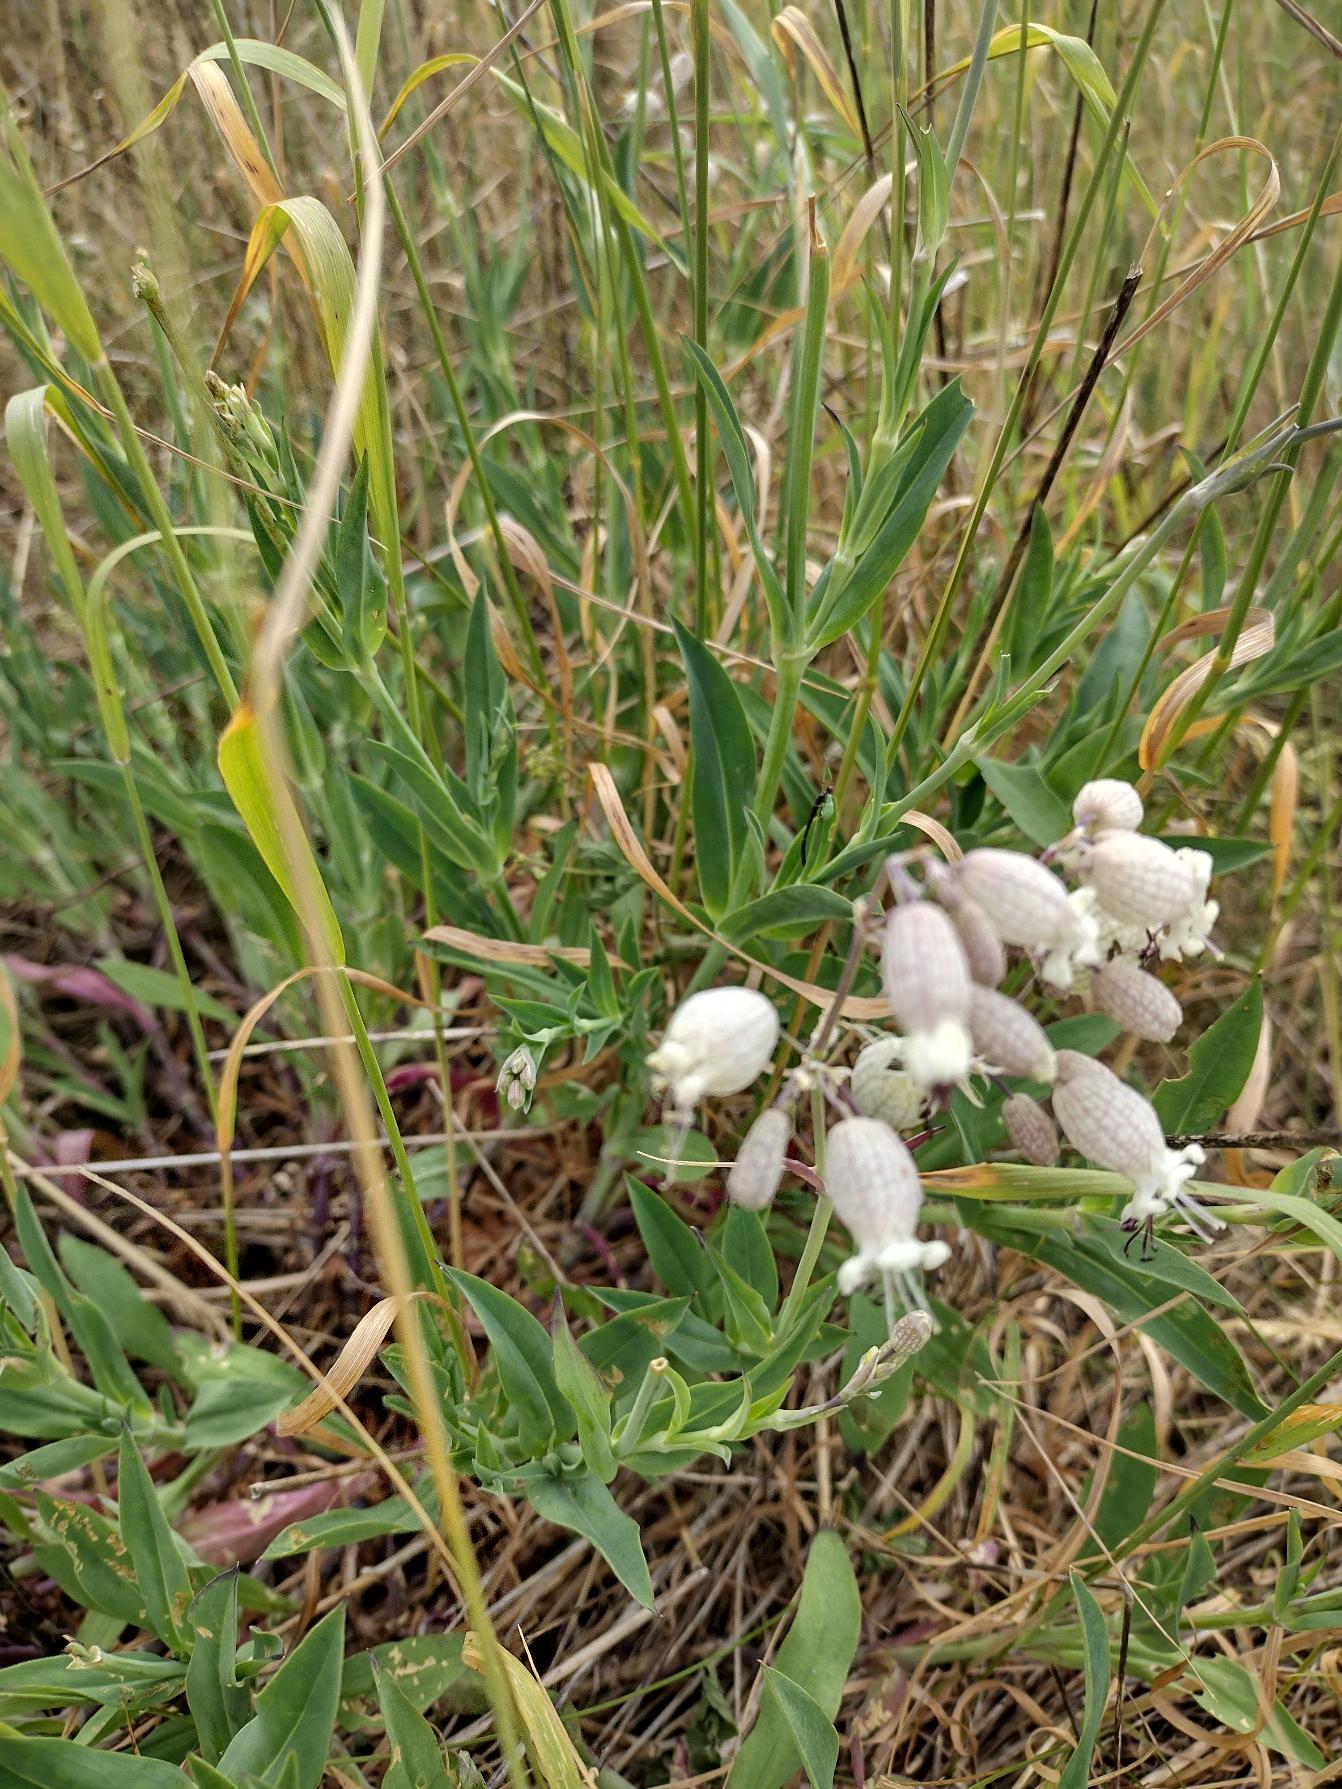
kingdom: Plantae
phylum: Tracheophyta
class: Magnoliopsida
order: Caryophyllales
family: Caryophyllaceae
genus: Silene
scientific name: Silene vulgaris
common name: Blæresmælde
